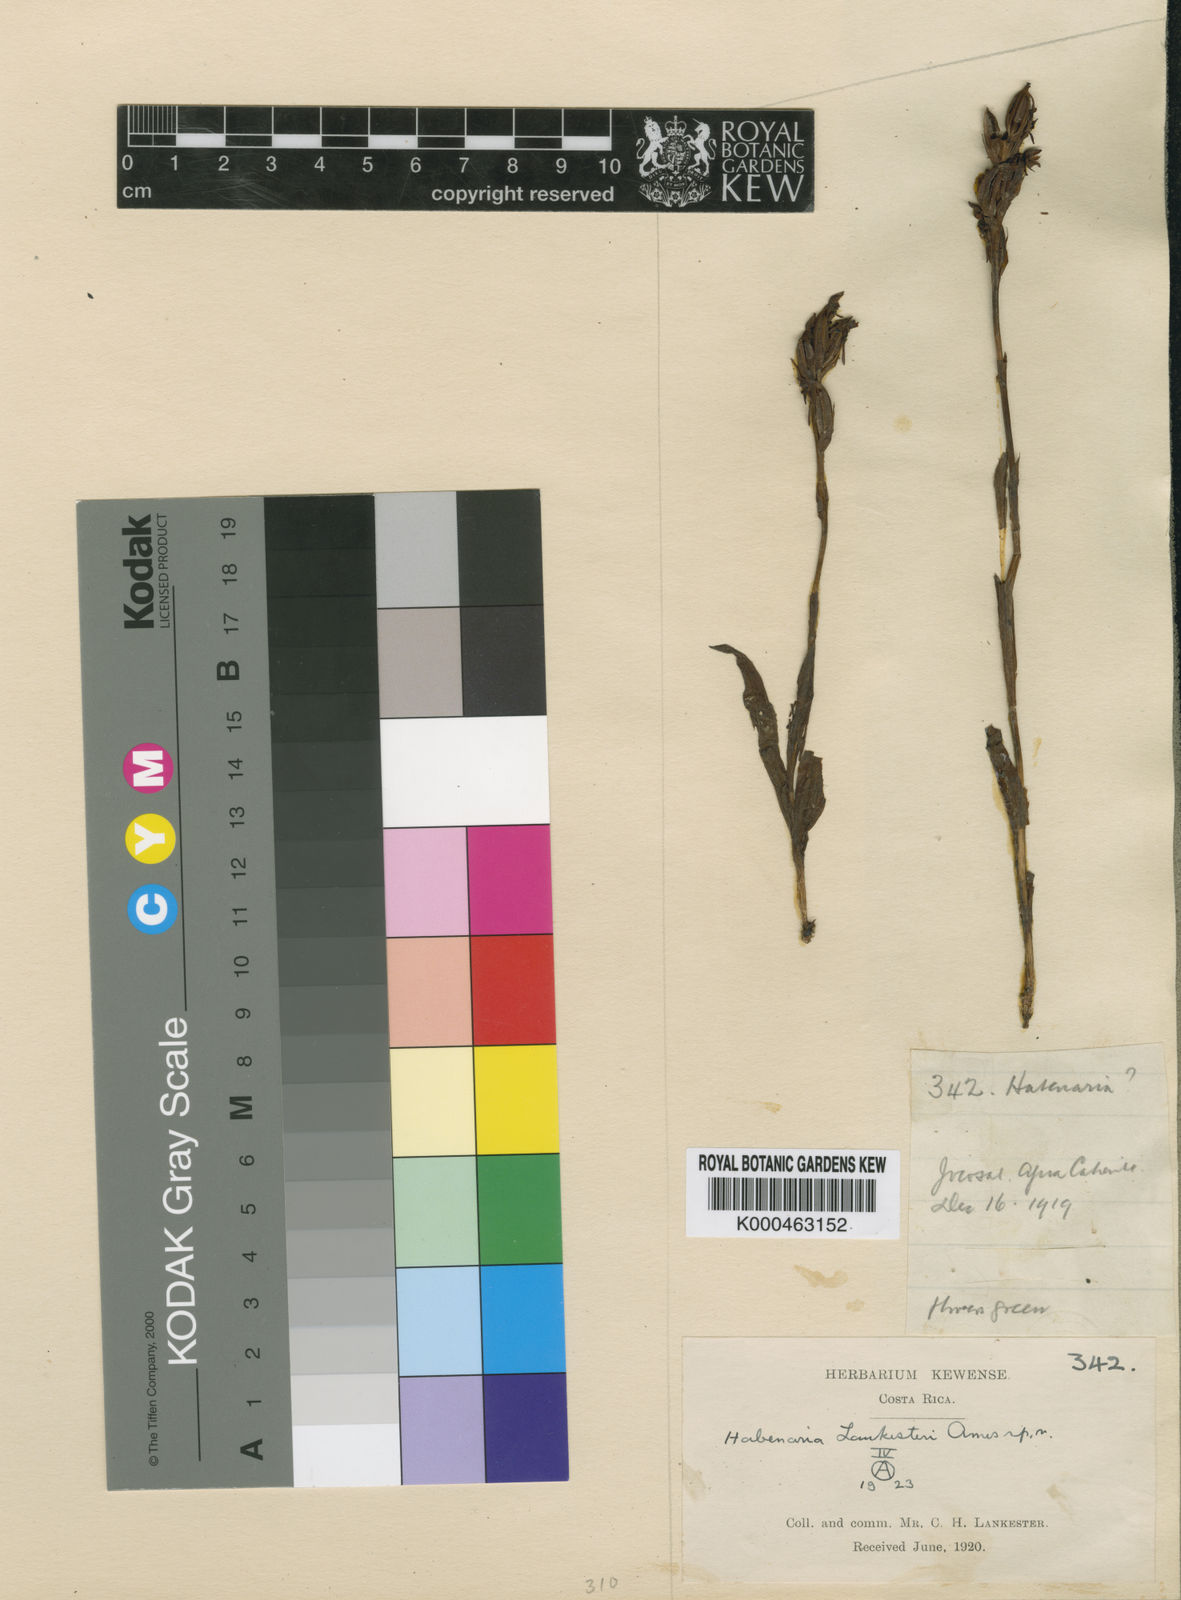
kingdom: Plantae
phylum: Tracheophyta
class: Liliopsida
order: Asparagales
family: Orchidaceae
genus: Habenaria
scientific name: Habenaria lankesteri
